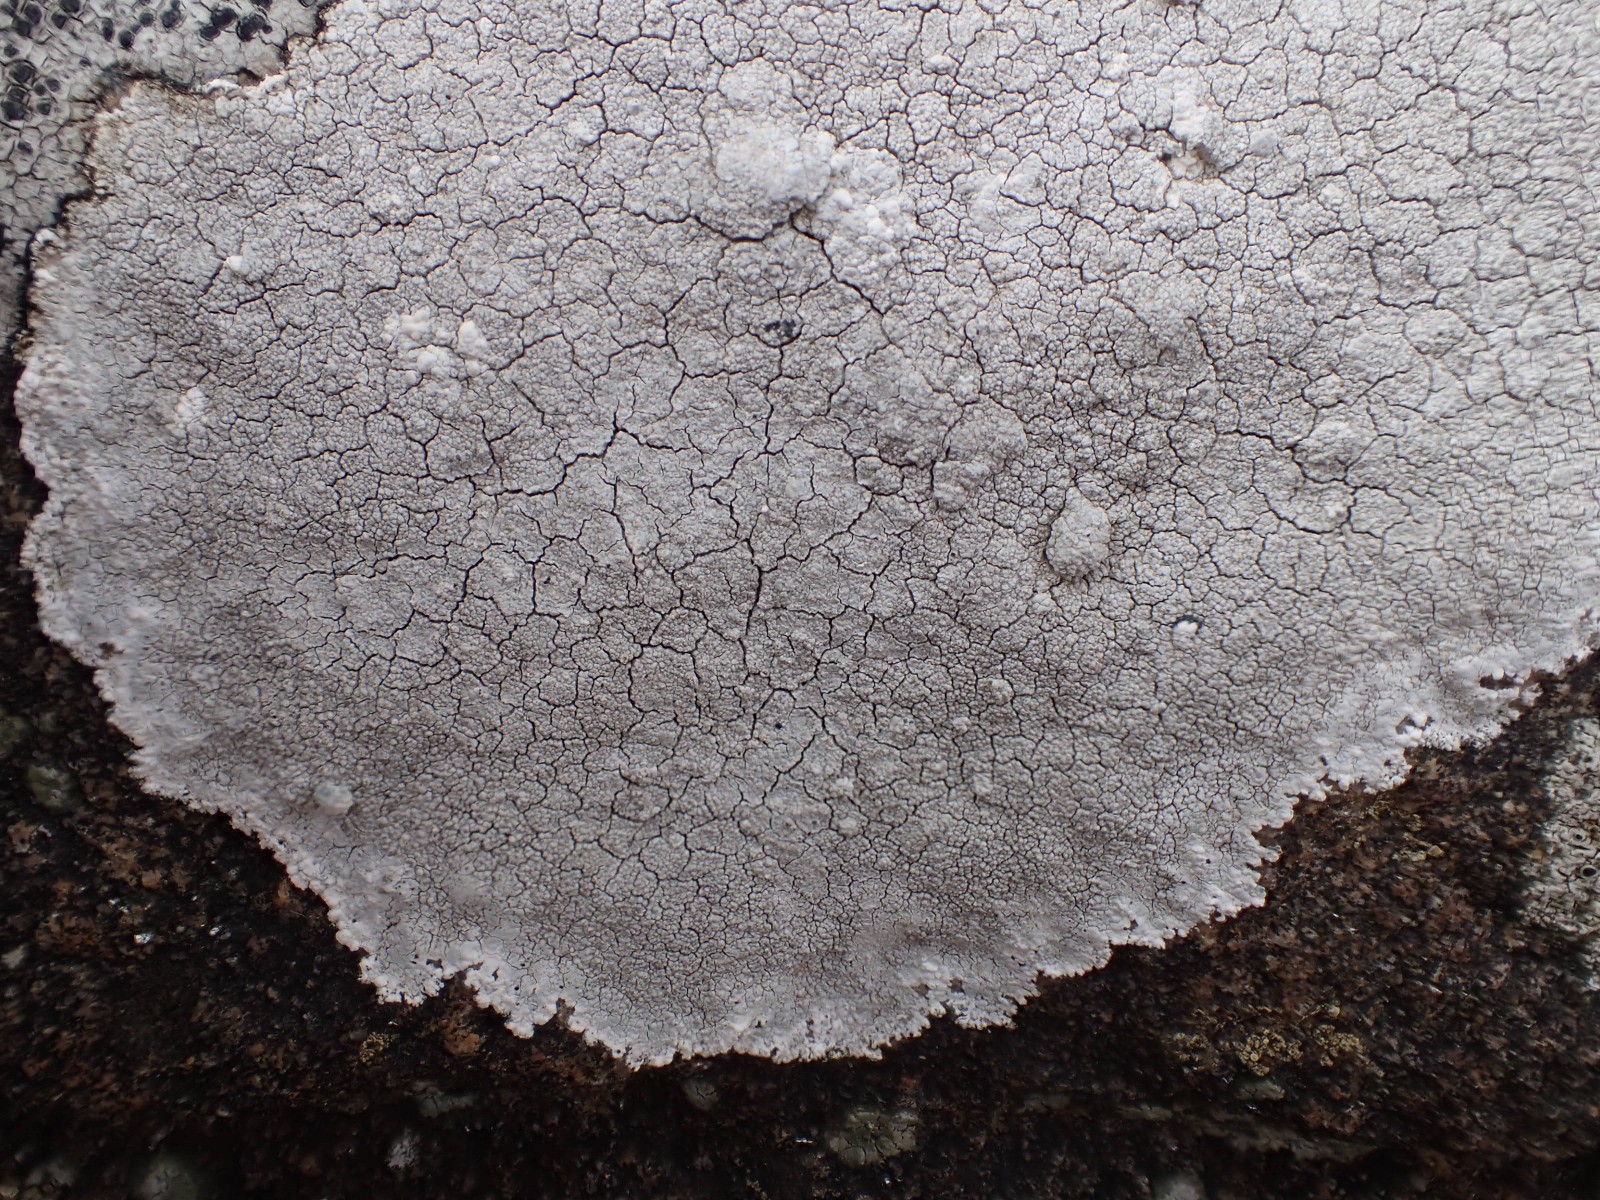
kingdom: Fungi
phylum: Ascomycota
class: Lecanoromycetes
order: Lecanorales
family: Lecanoraceae
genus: Glaucomaria
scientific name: Glaucomaria rupicola
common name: stengærde-kantskivelav
